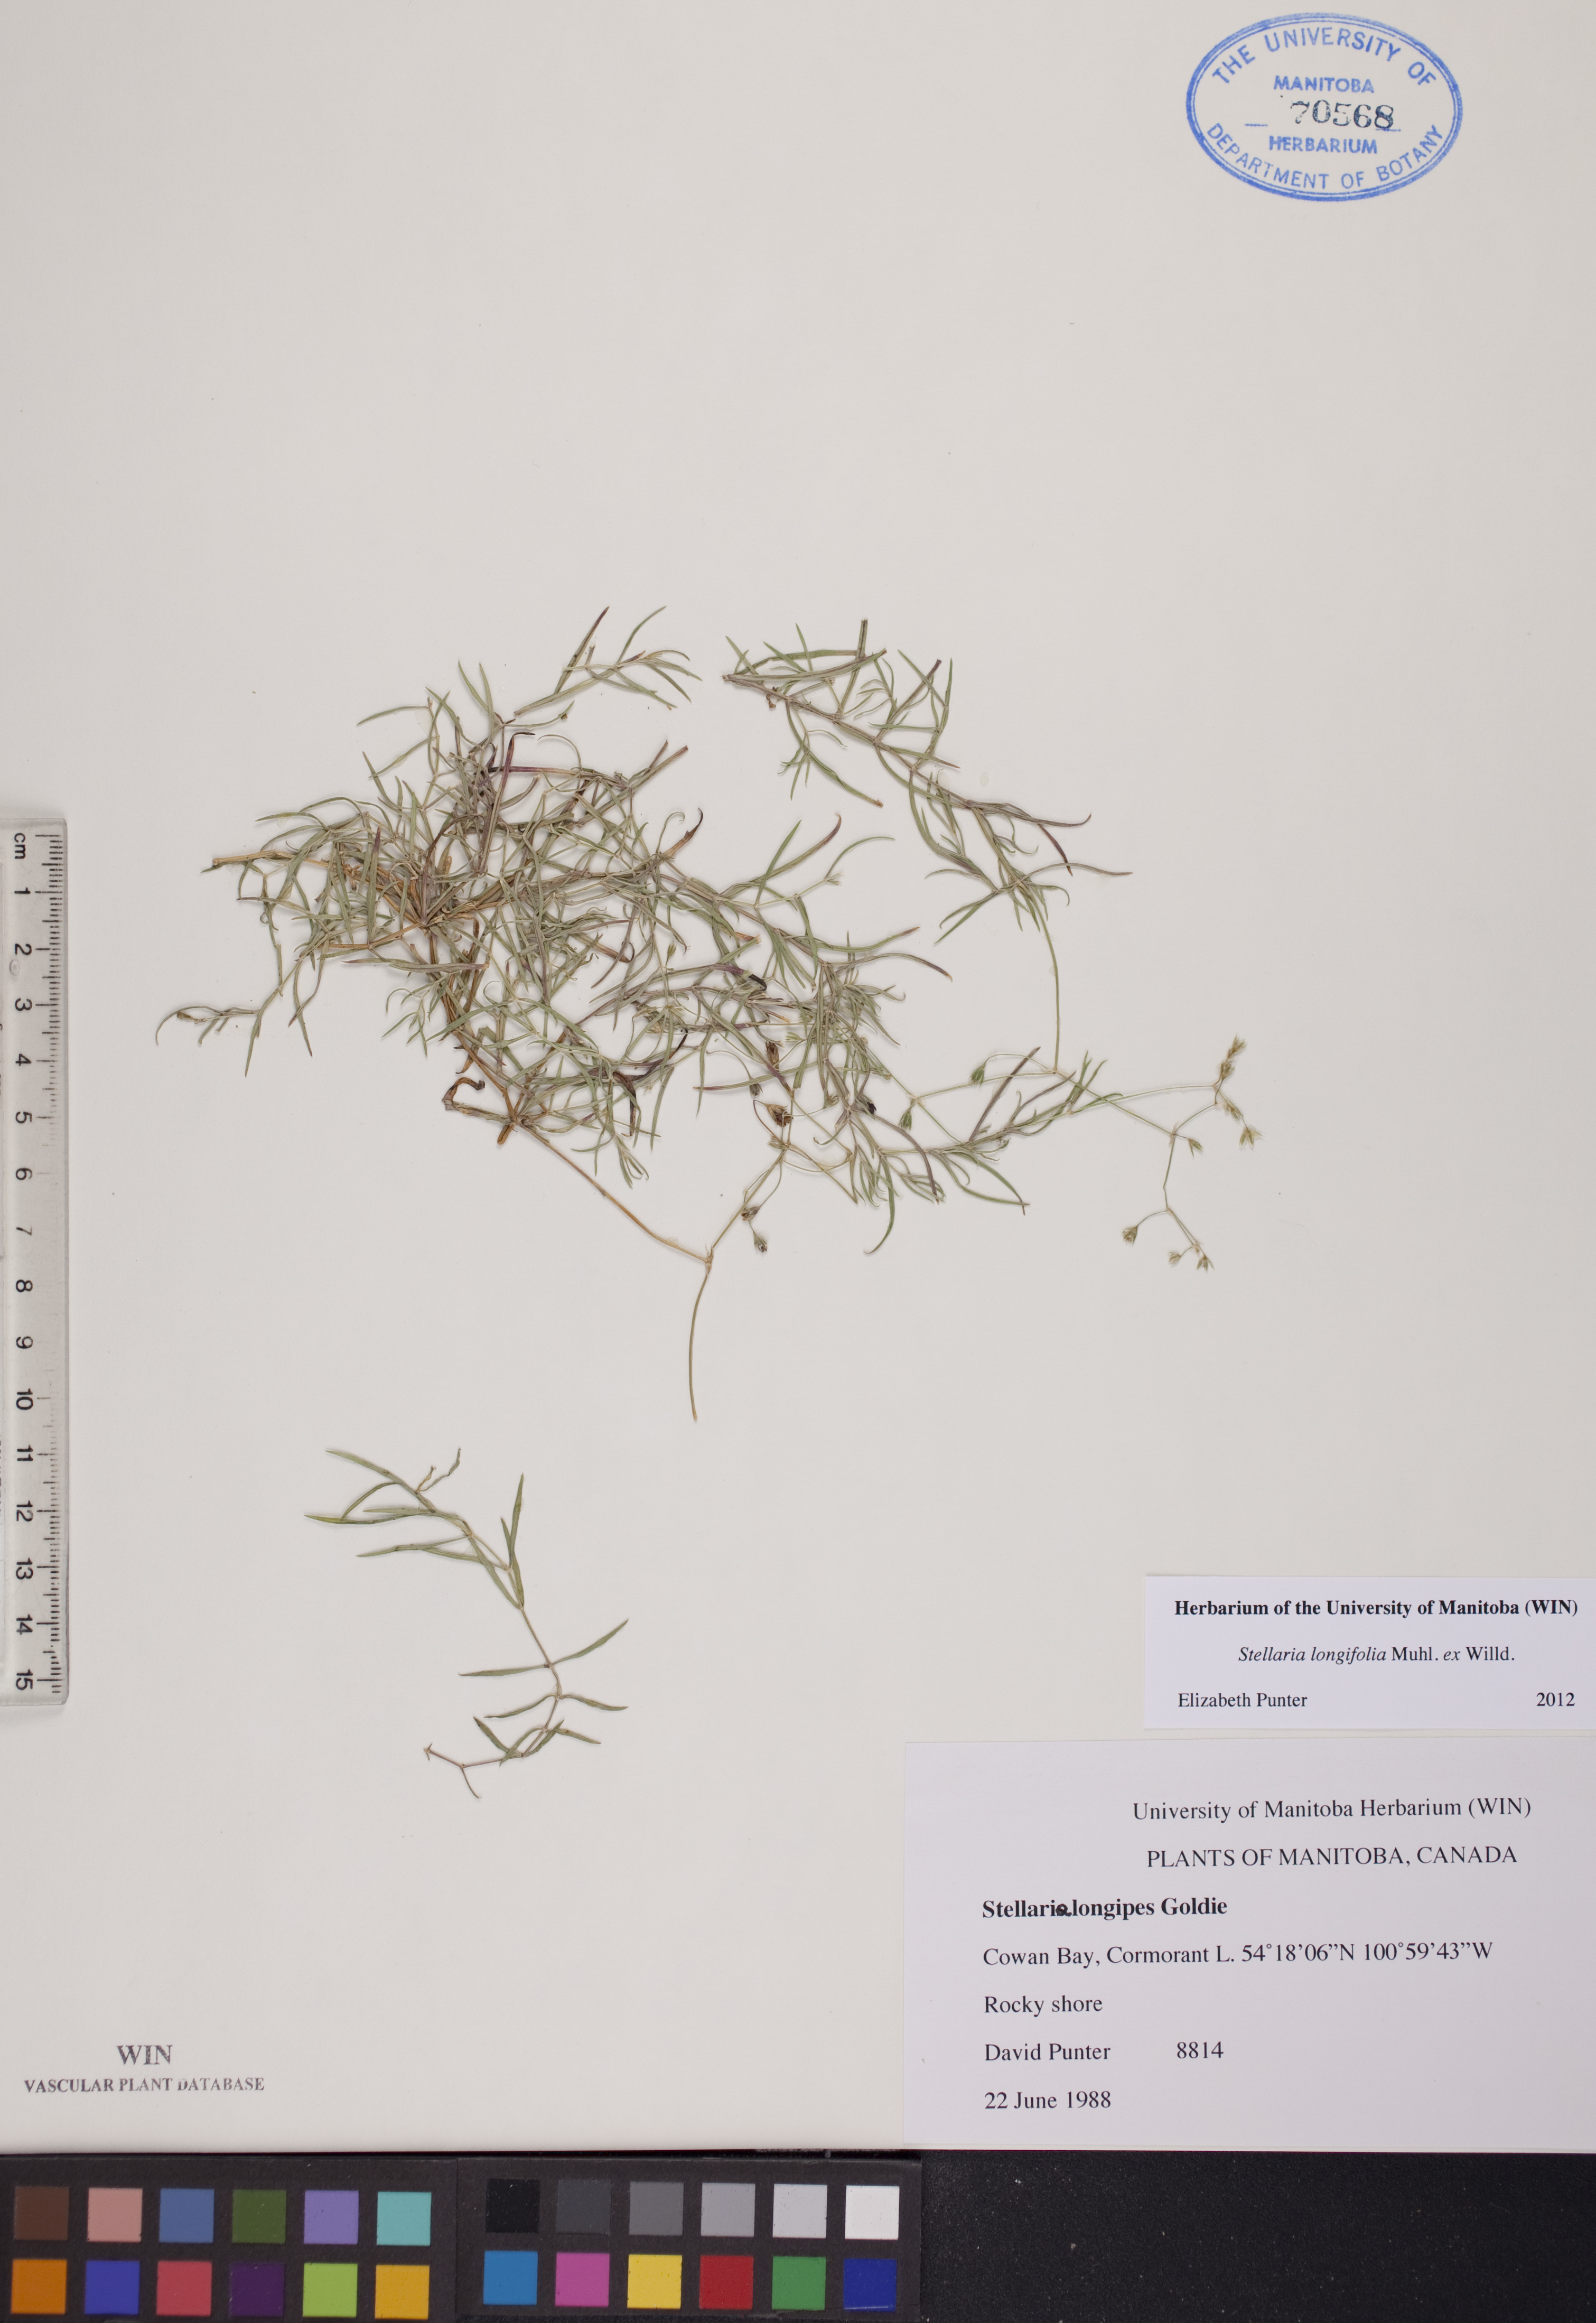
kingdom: Plantae
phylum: Tracheophyta
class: Magnoliopsida
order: Caryophyllales
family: Caryophyllaceae
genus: Stellaria
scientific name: Stellaria longifolia
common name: Long-leaved chickweed
